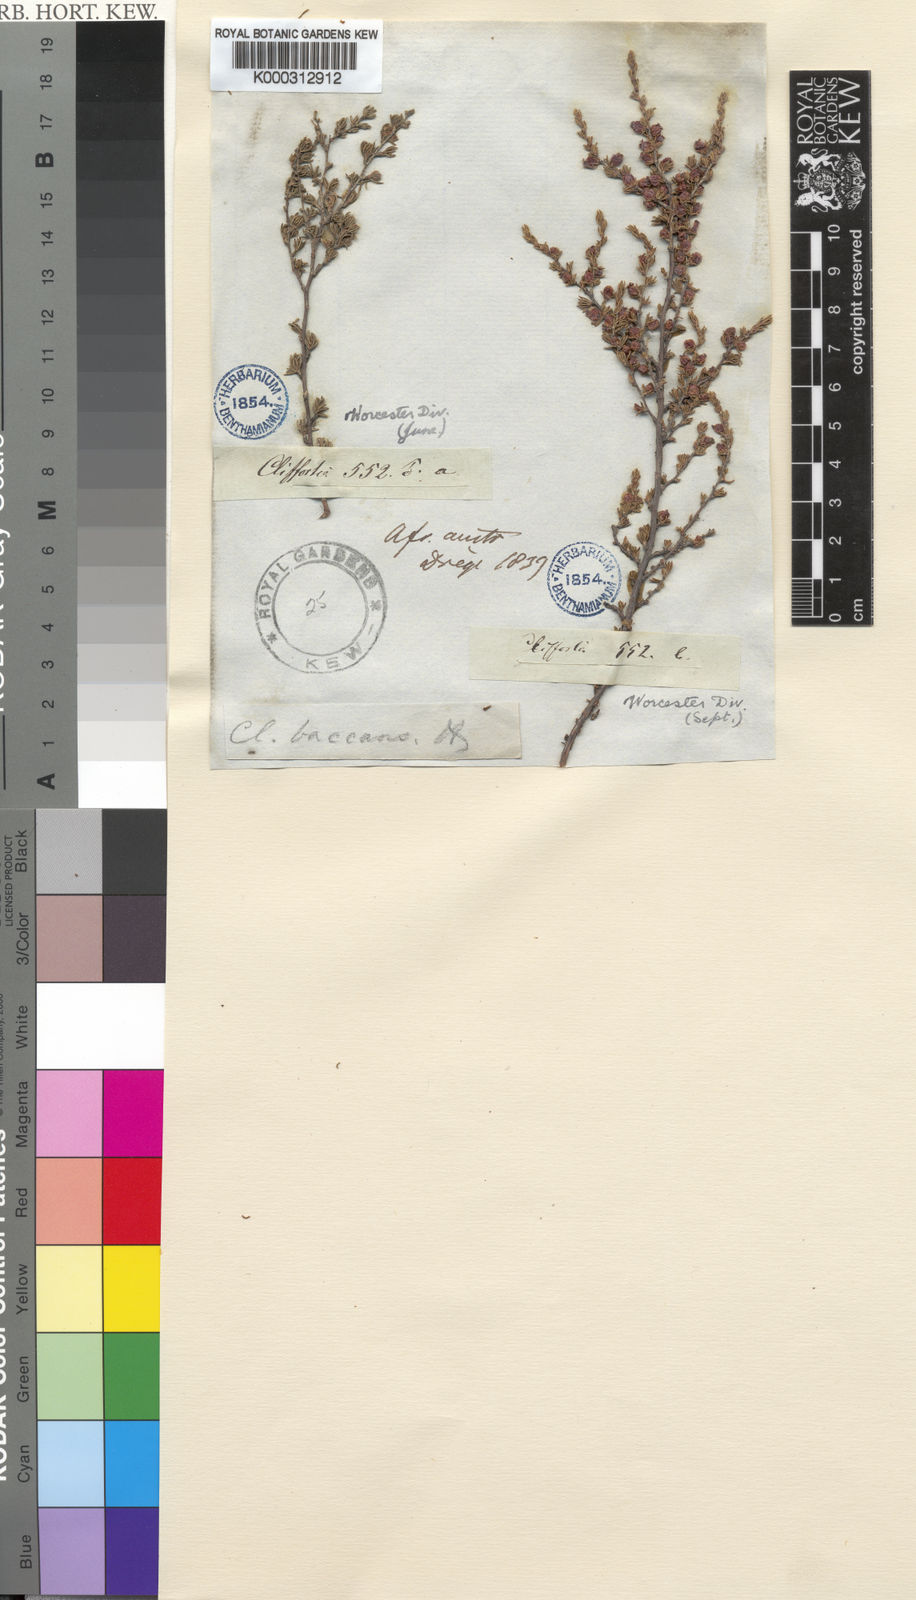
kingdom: Plantae
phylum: Tracheophyta
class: Magnoliopsida
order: Rosales
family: Rosaceae
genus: Cliffortia
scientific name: Cliffortia baccans
